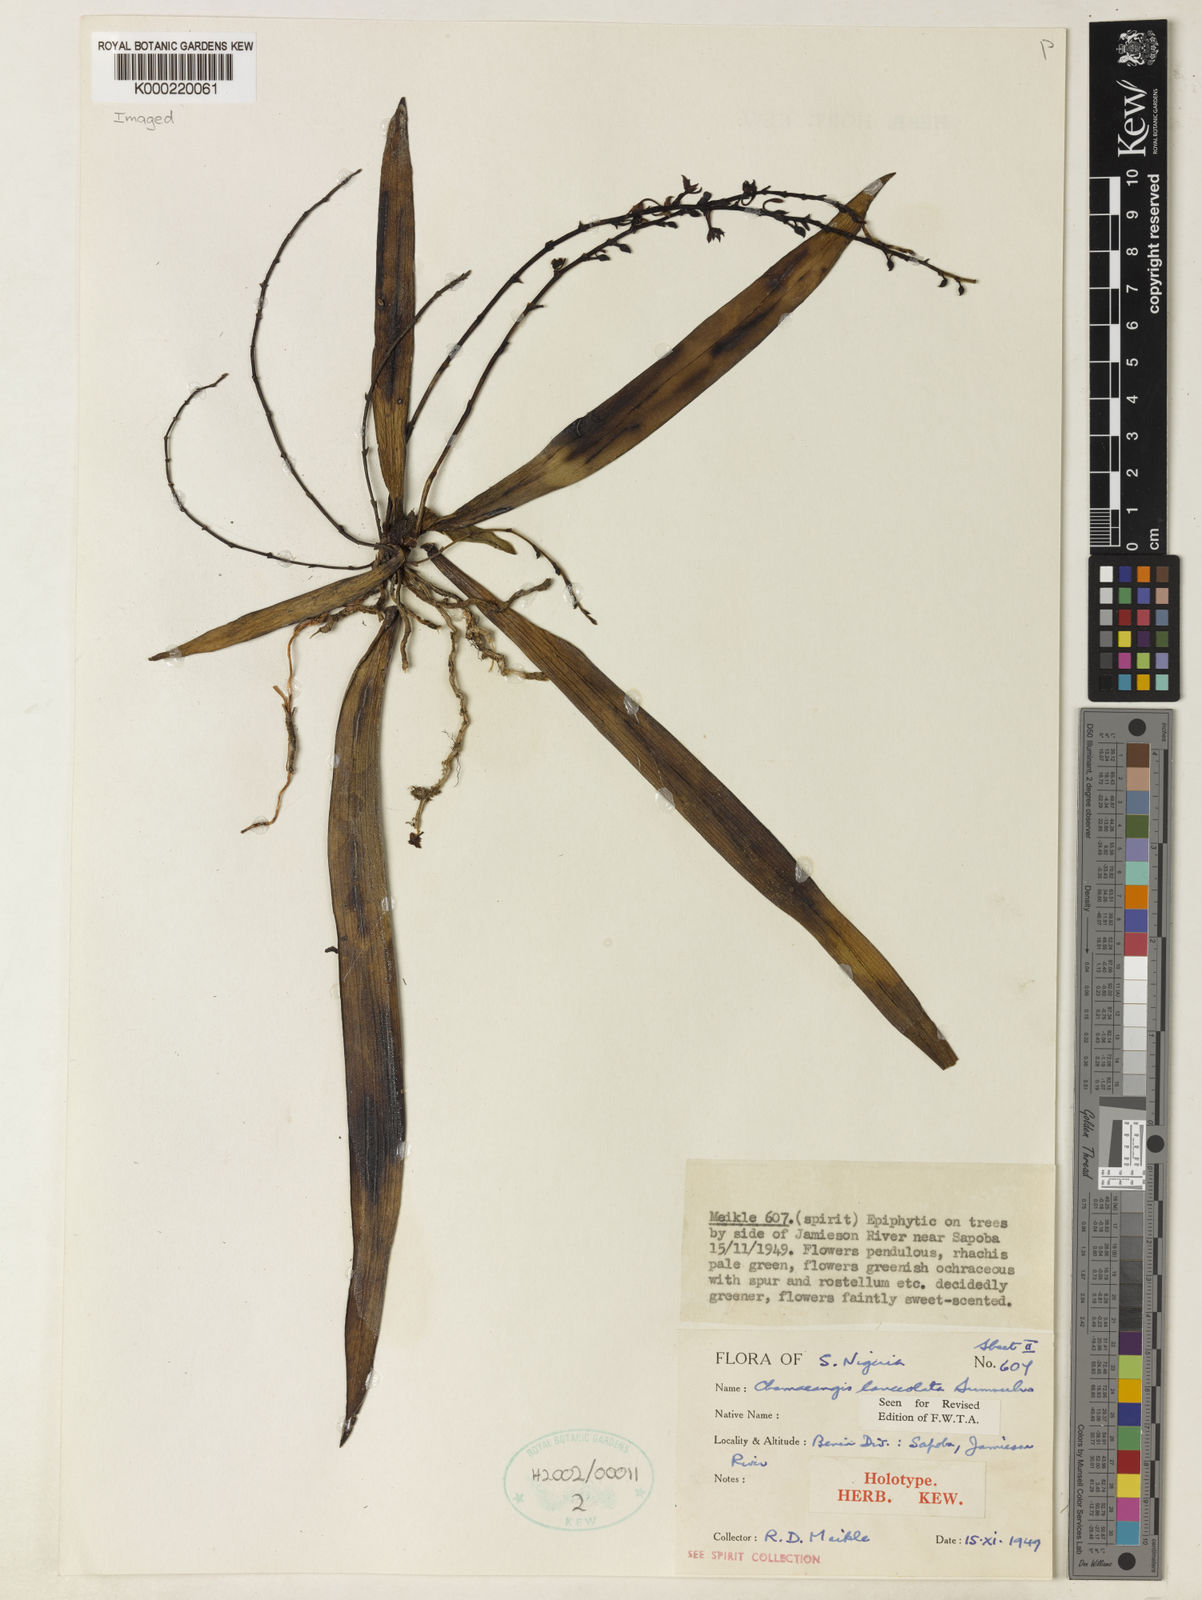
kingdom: Plantae
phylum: Tracheophyta
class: Liliopsida
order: Asparagales
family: Orchidaceae
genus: Diaphananthe
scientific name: Diaphananthe lanceolata
